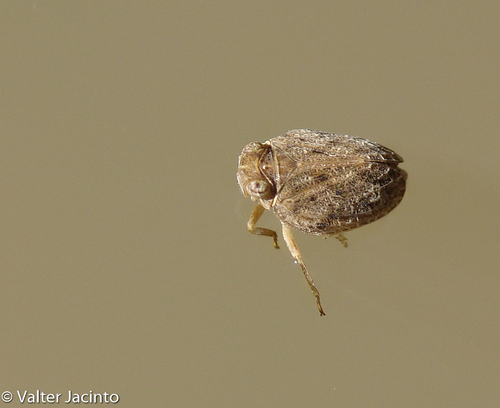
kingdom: Animalia
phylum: Arthropoda
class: Insecta
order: Hemiptera
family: Issidae
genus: Hysteropterum
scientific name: Hysteropterum
